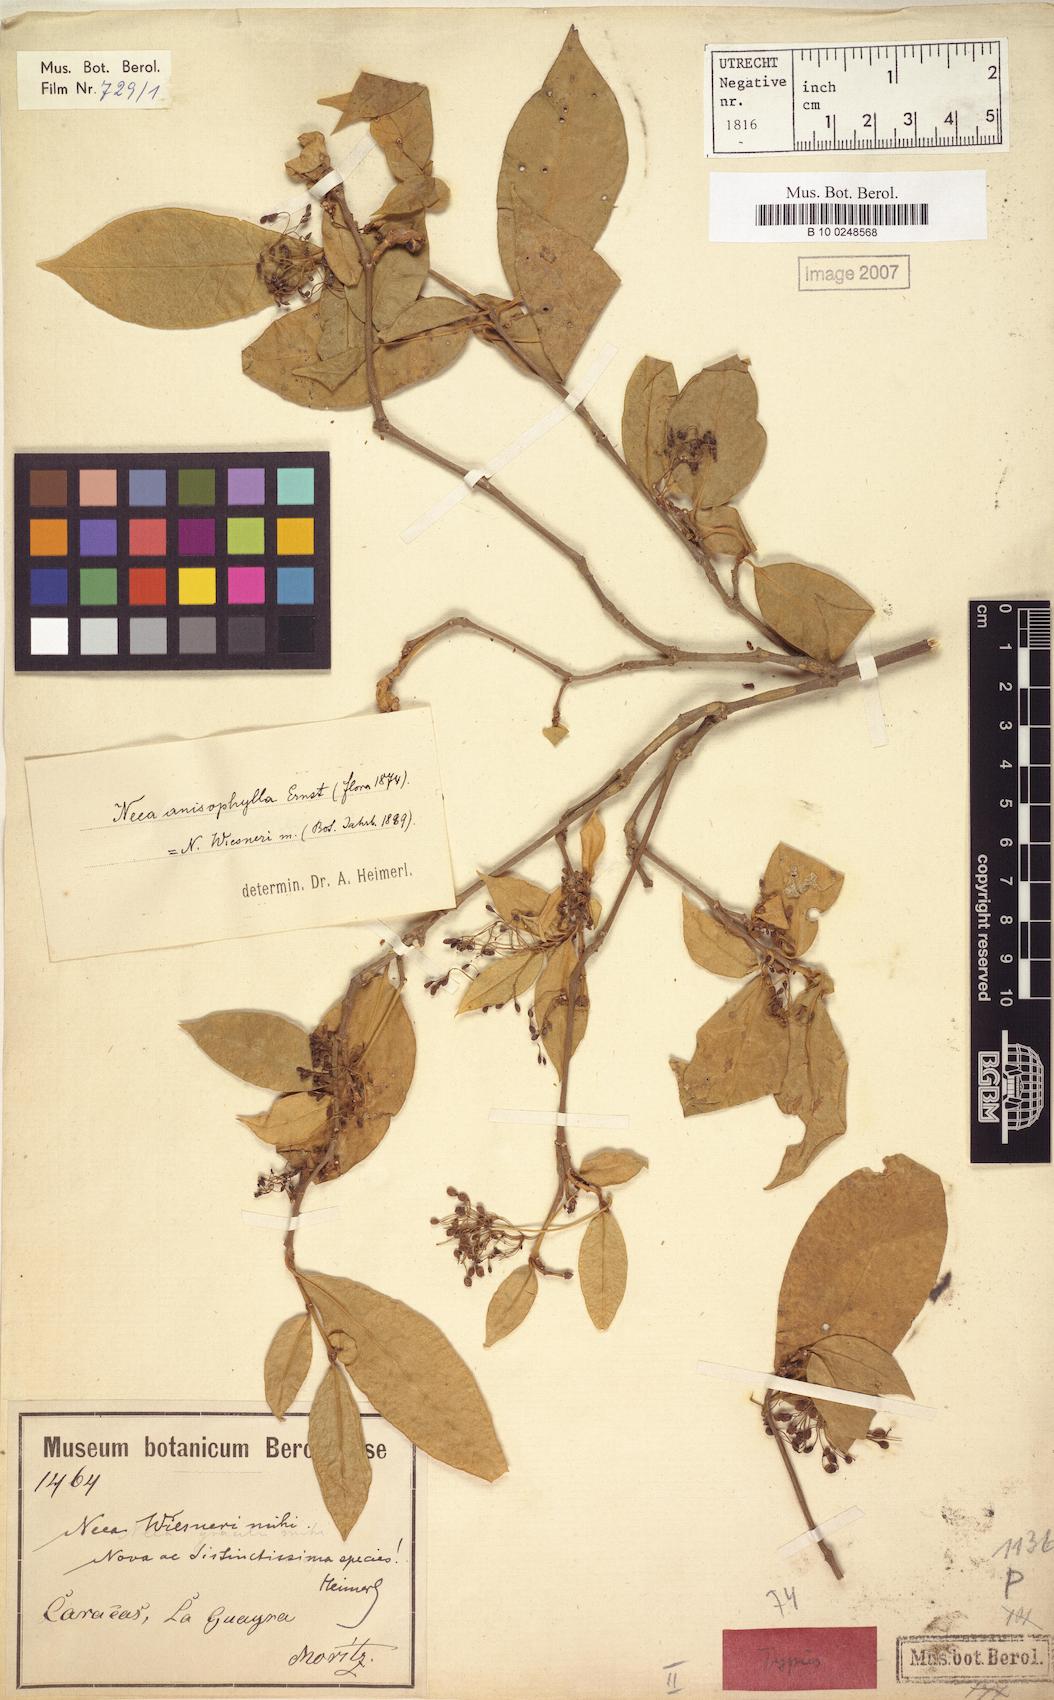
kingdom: Plantae
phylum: Tracheophyta
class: Magnoliopsida
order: Caryophyllales
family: Nyctaginaceae
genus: Neea
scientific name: Neea anisophylla
